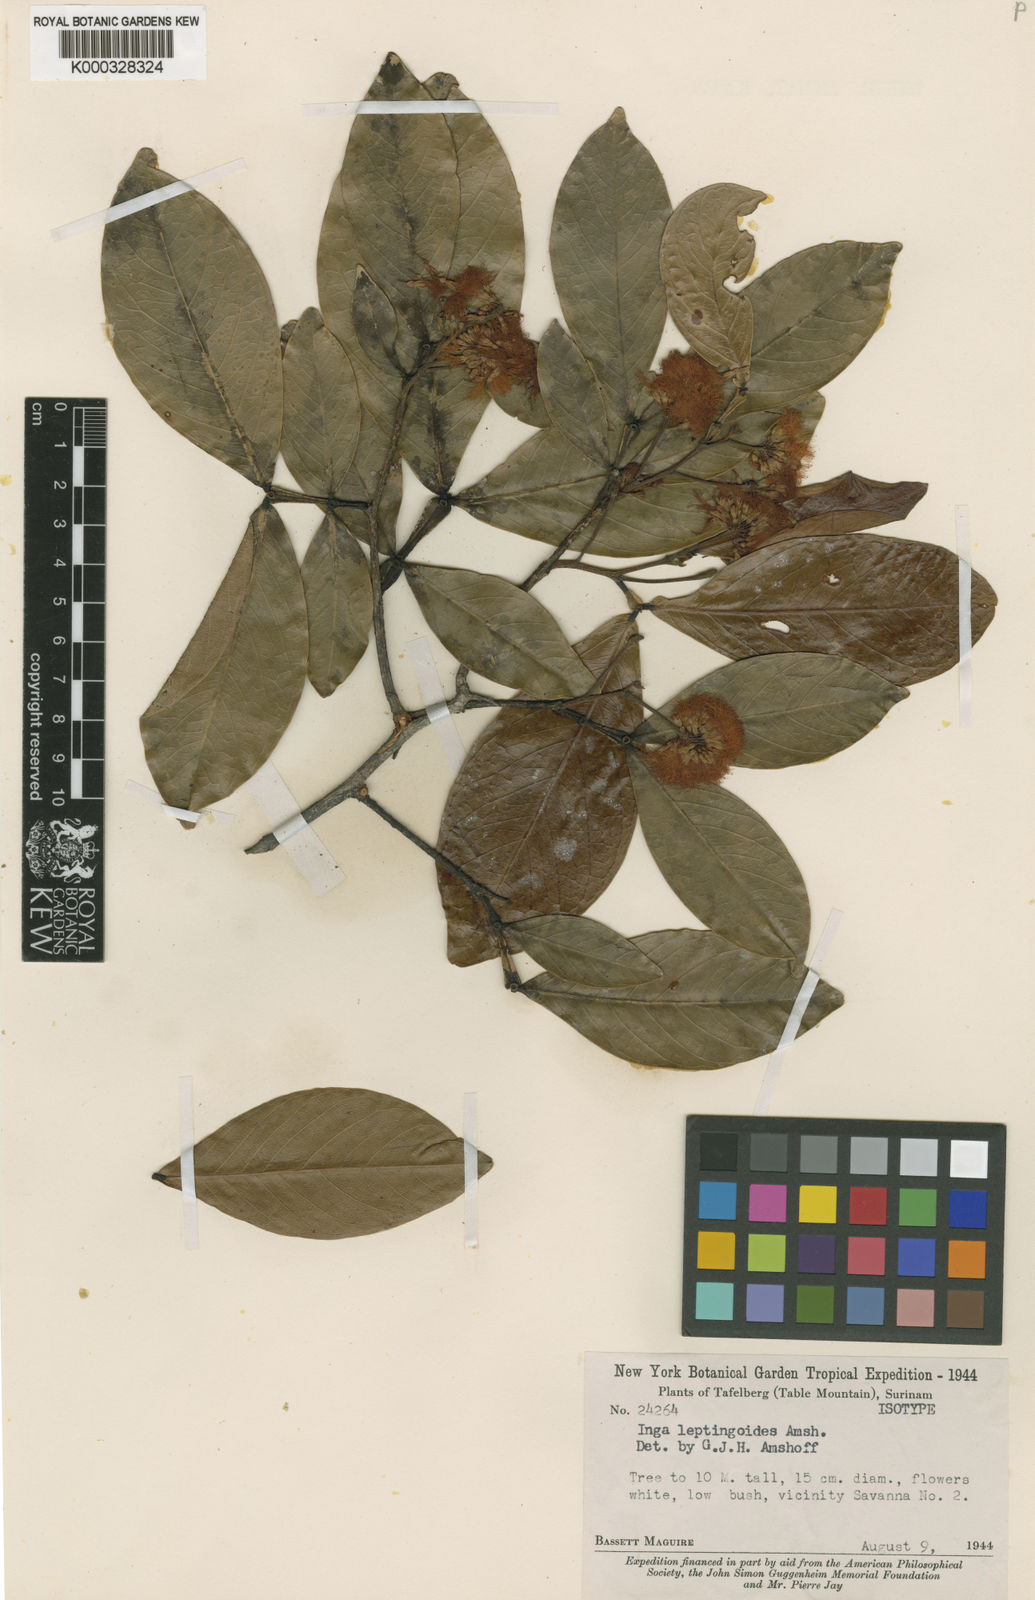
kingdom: Plantae
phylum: Tracheophyta
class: Magnoliopsida
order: Fabales
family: Fabaceae
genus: Inga
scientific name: Inga leptingoides
